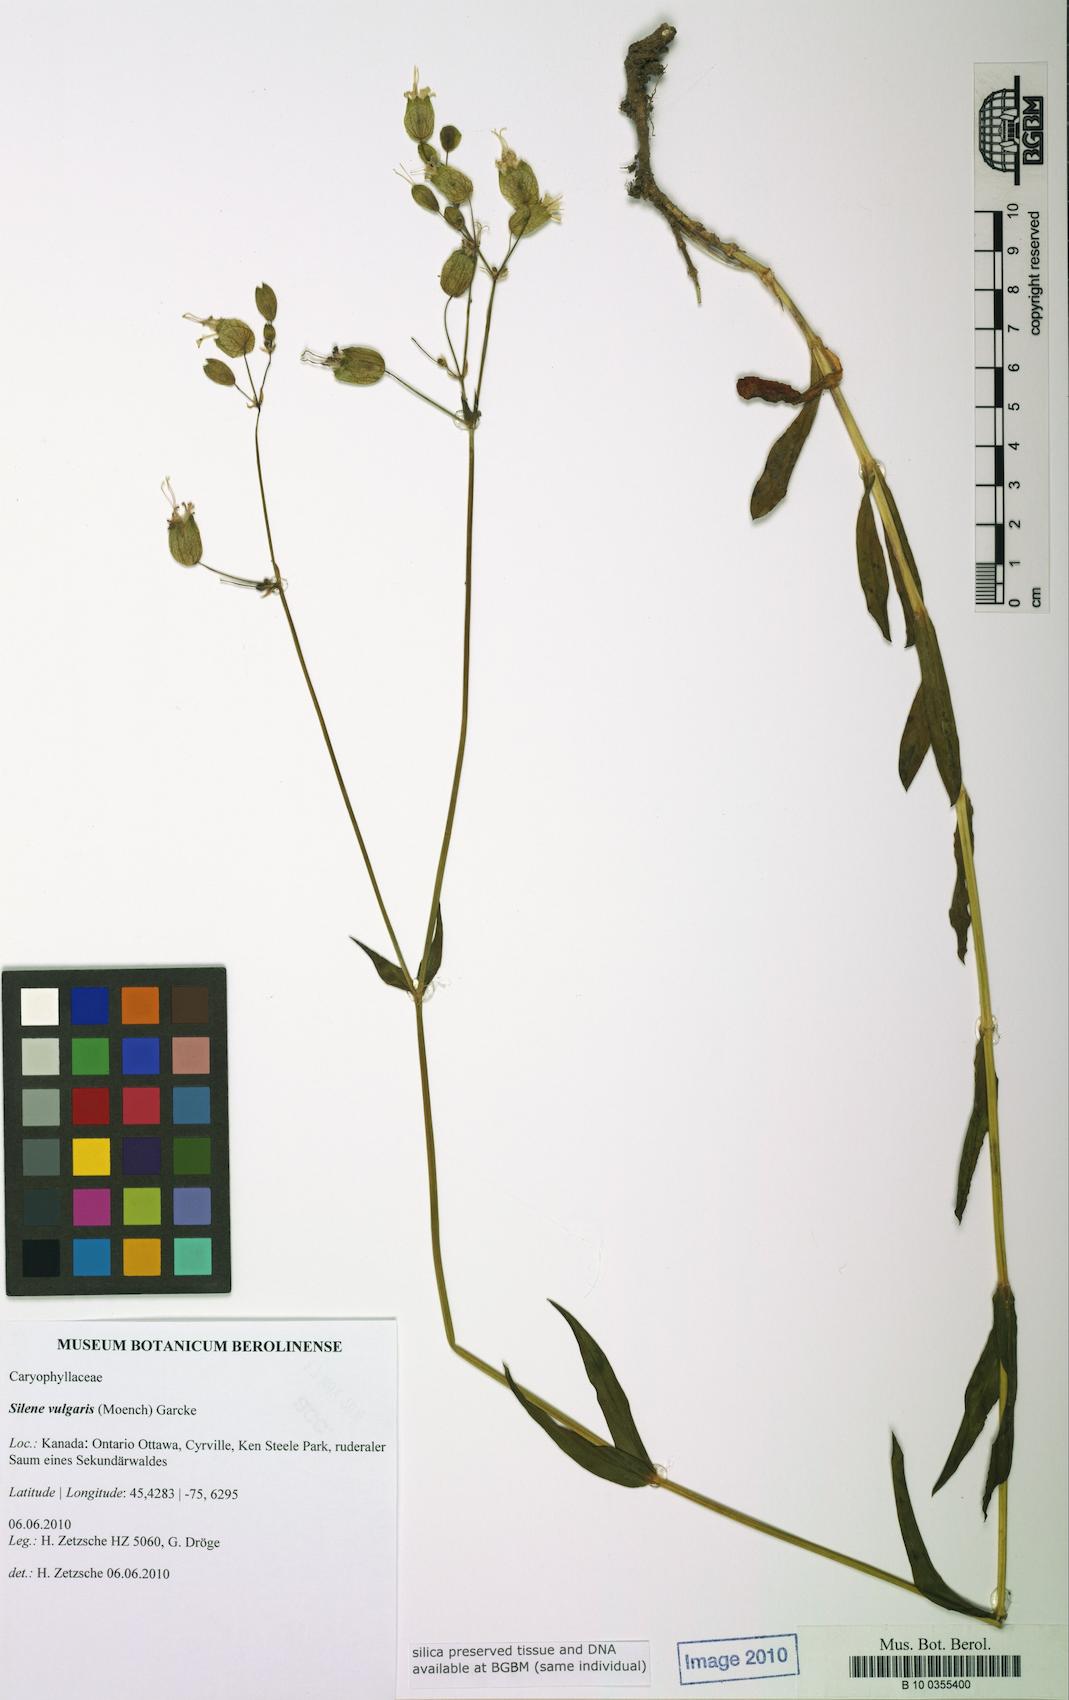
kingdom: Plantae
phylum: Tracheophyta
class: Magnoliopsida
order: Caryophyllales
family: Caryophyllaceae
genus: Silene
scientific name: Silene vulgaris
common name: Bladder campion
